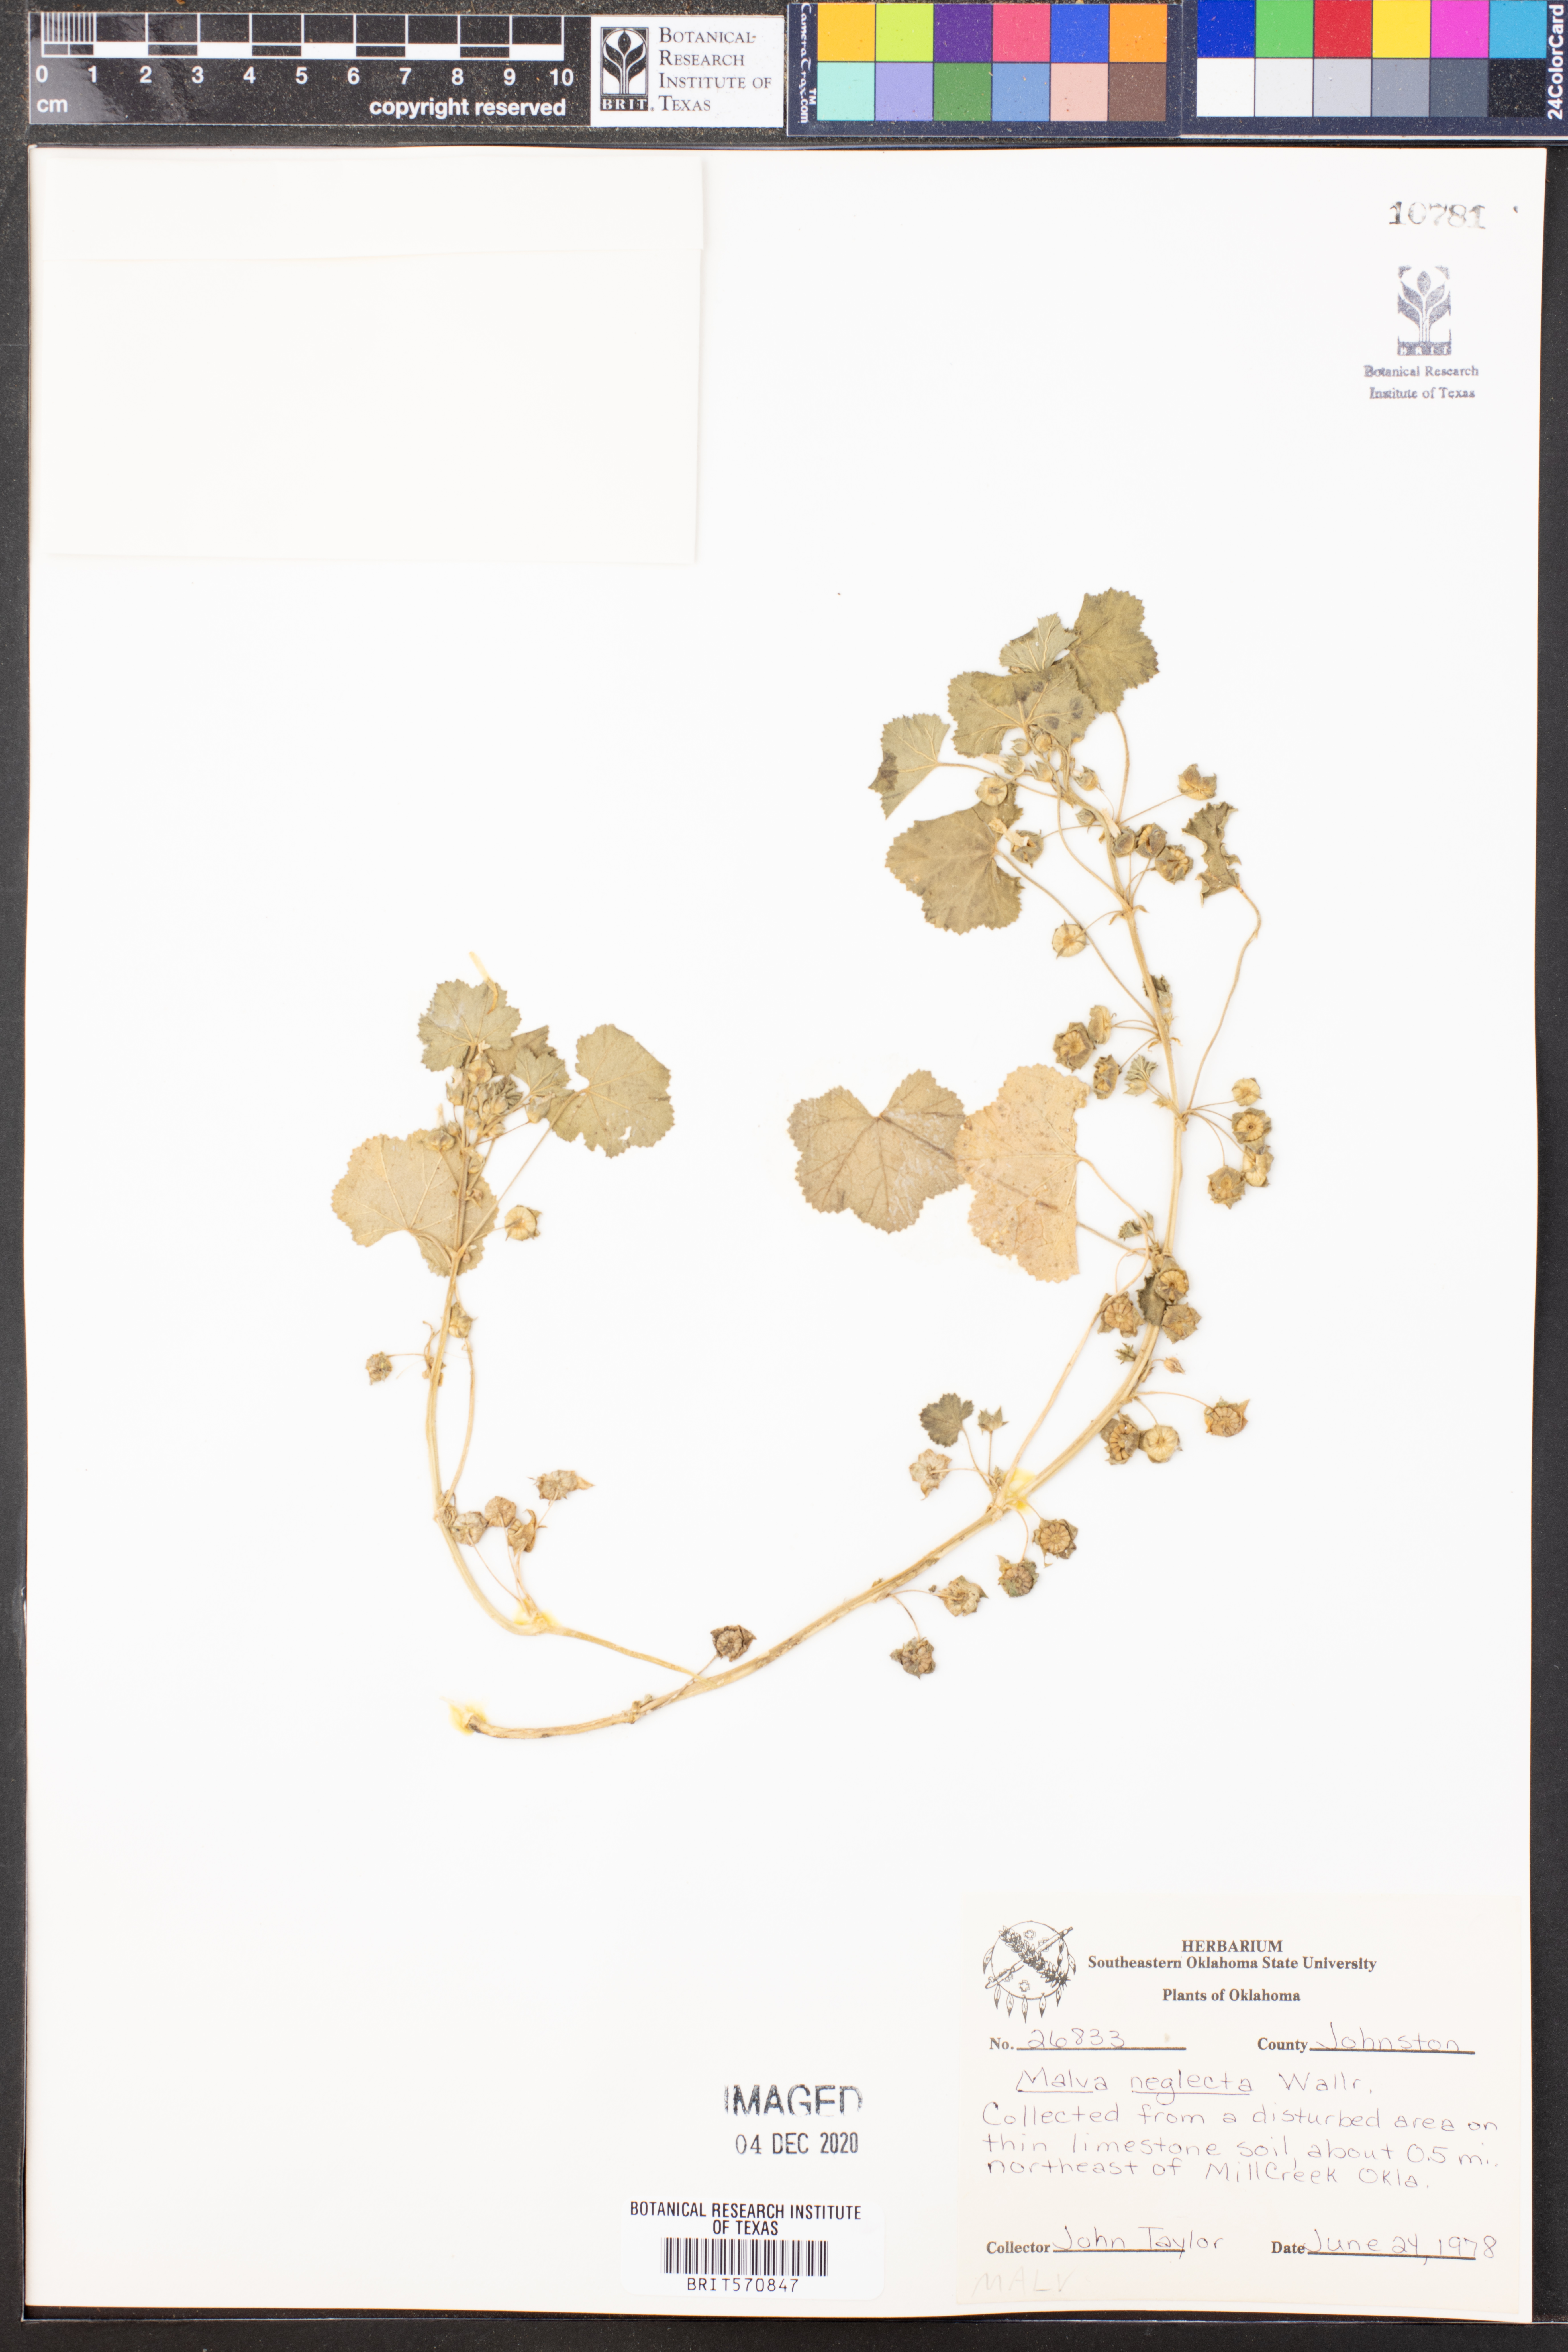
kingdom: Plantae
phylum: Tracheophyta
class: Magnoliopsida
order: Malvales
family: Malvaceae
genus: Malva
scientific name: Malva neglecta
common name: Common mallow
